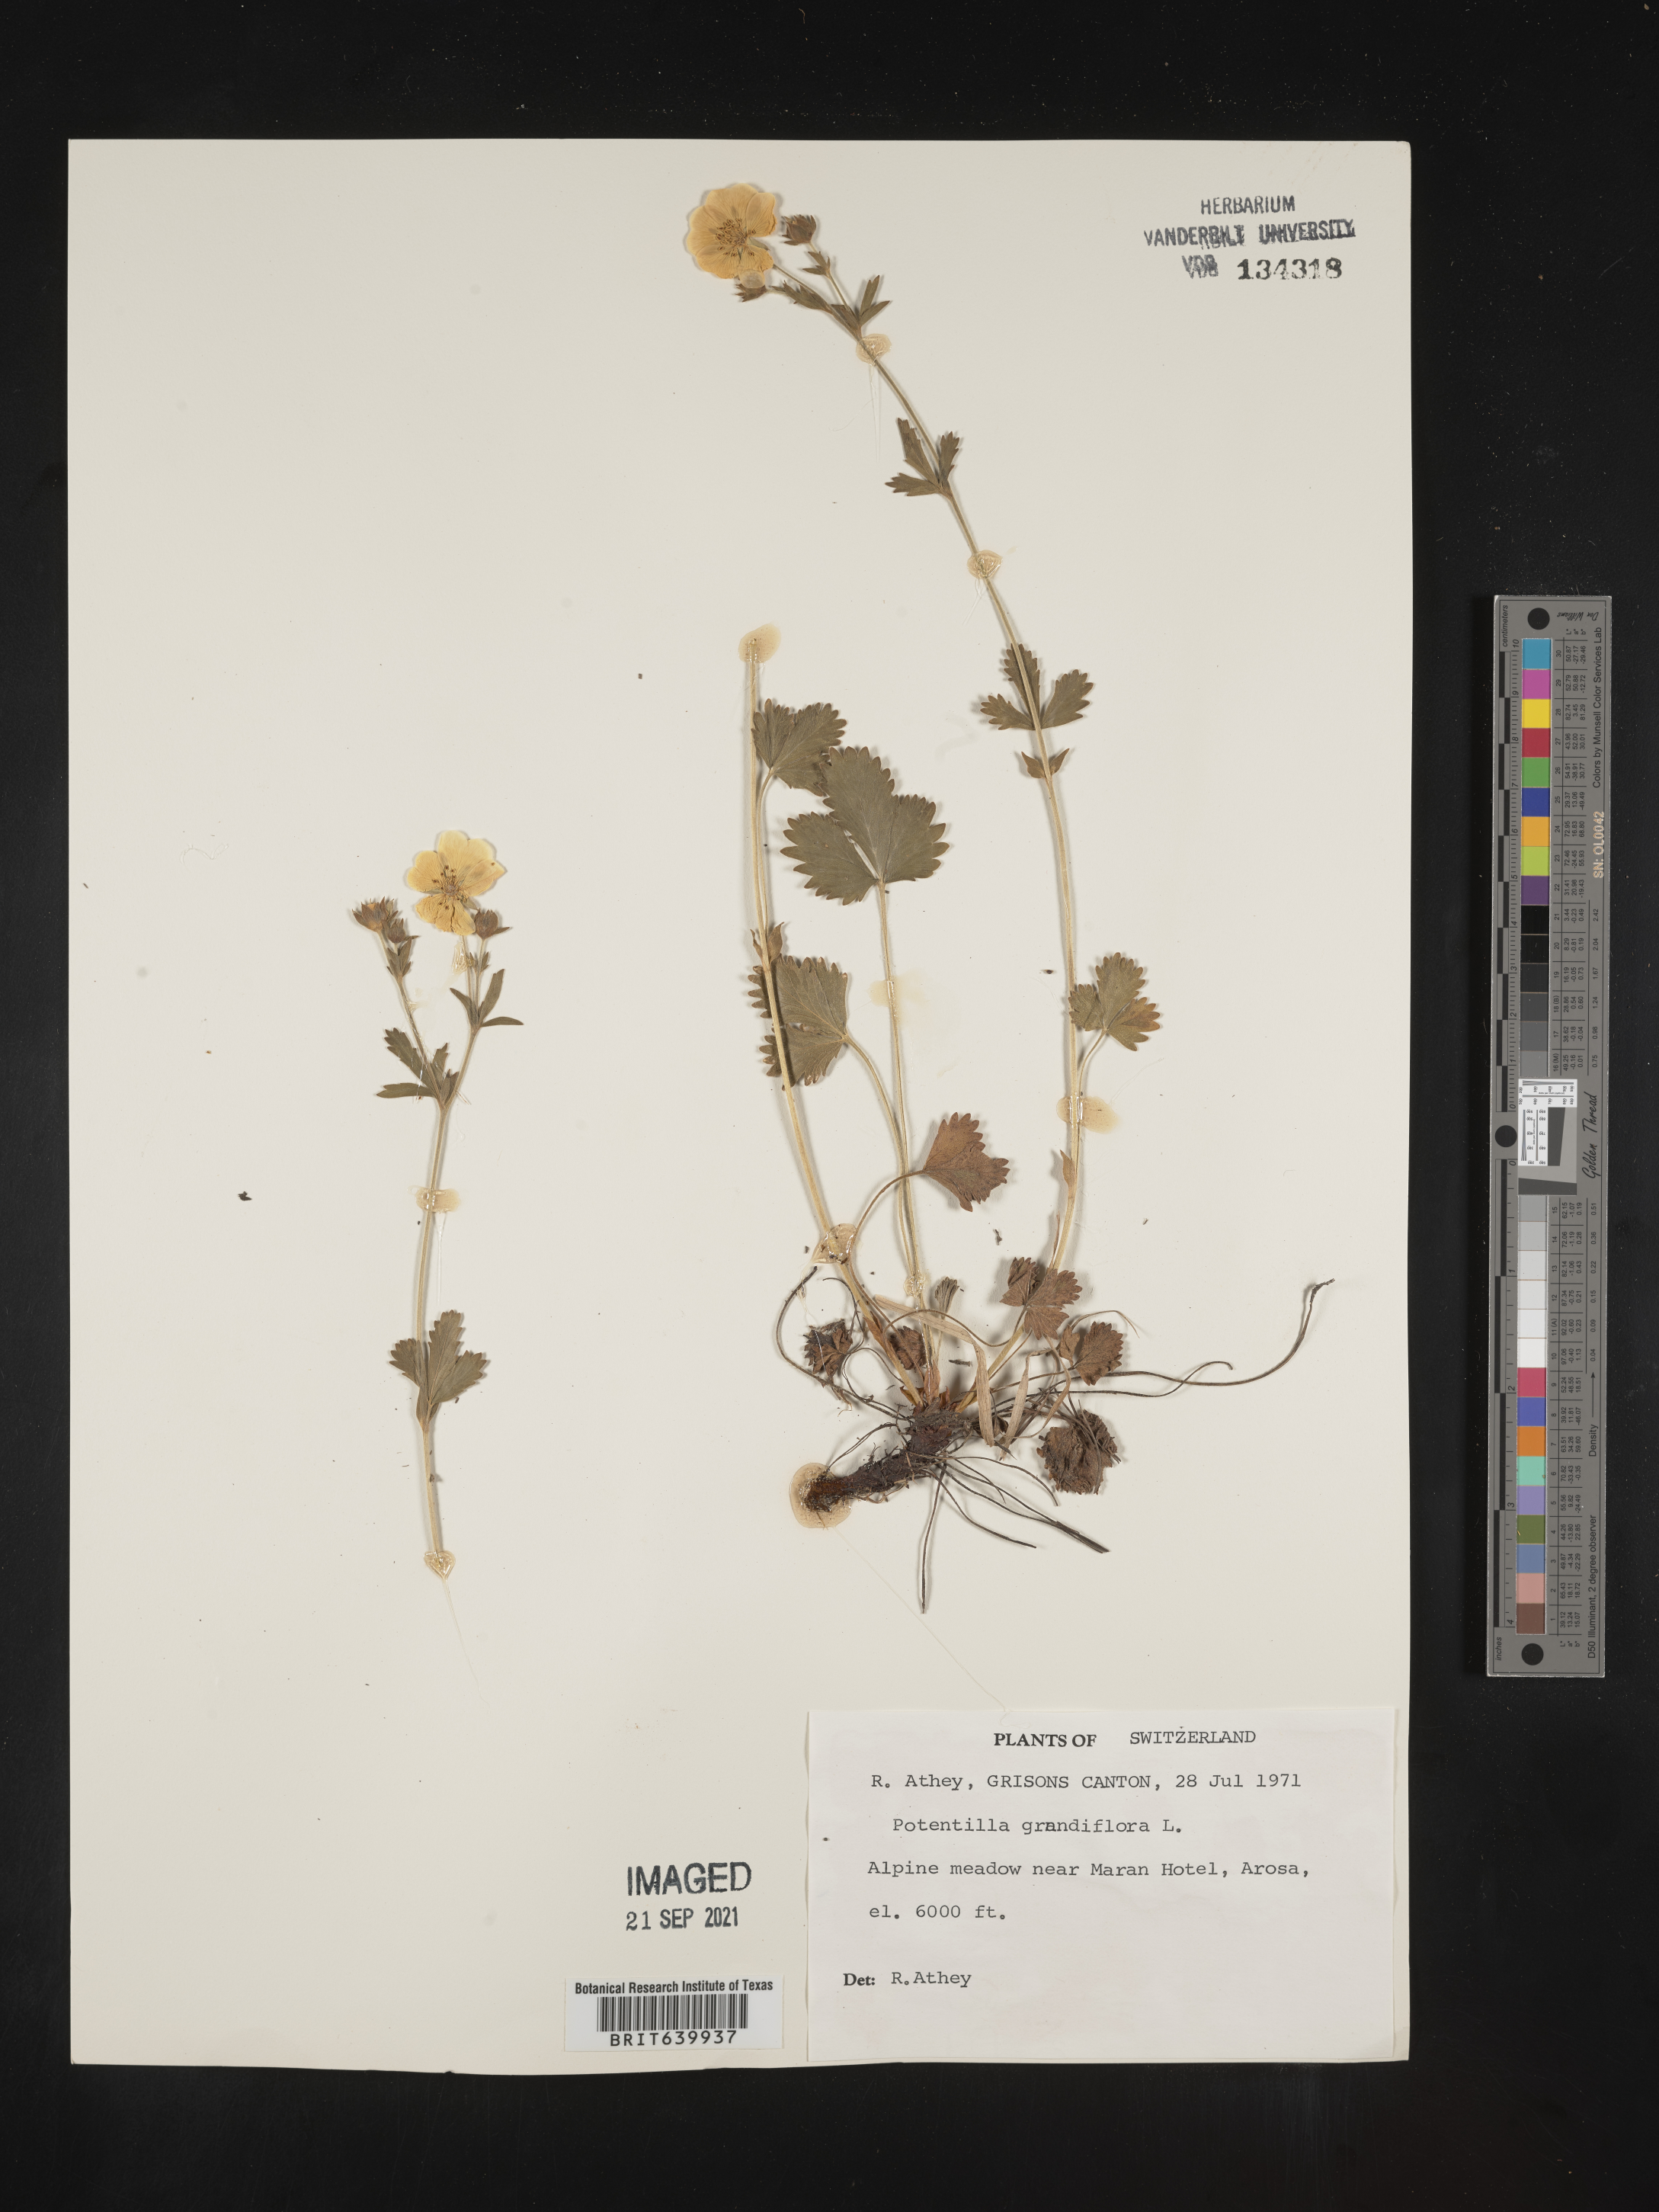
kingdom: Plantae
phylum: Tracheophyta
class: Magnoliopsida
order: Rosales
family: Rosaceae
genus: Potentilla
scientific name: Potentilla
